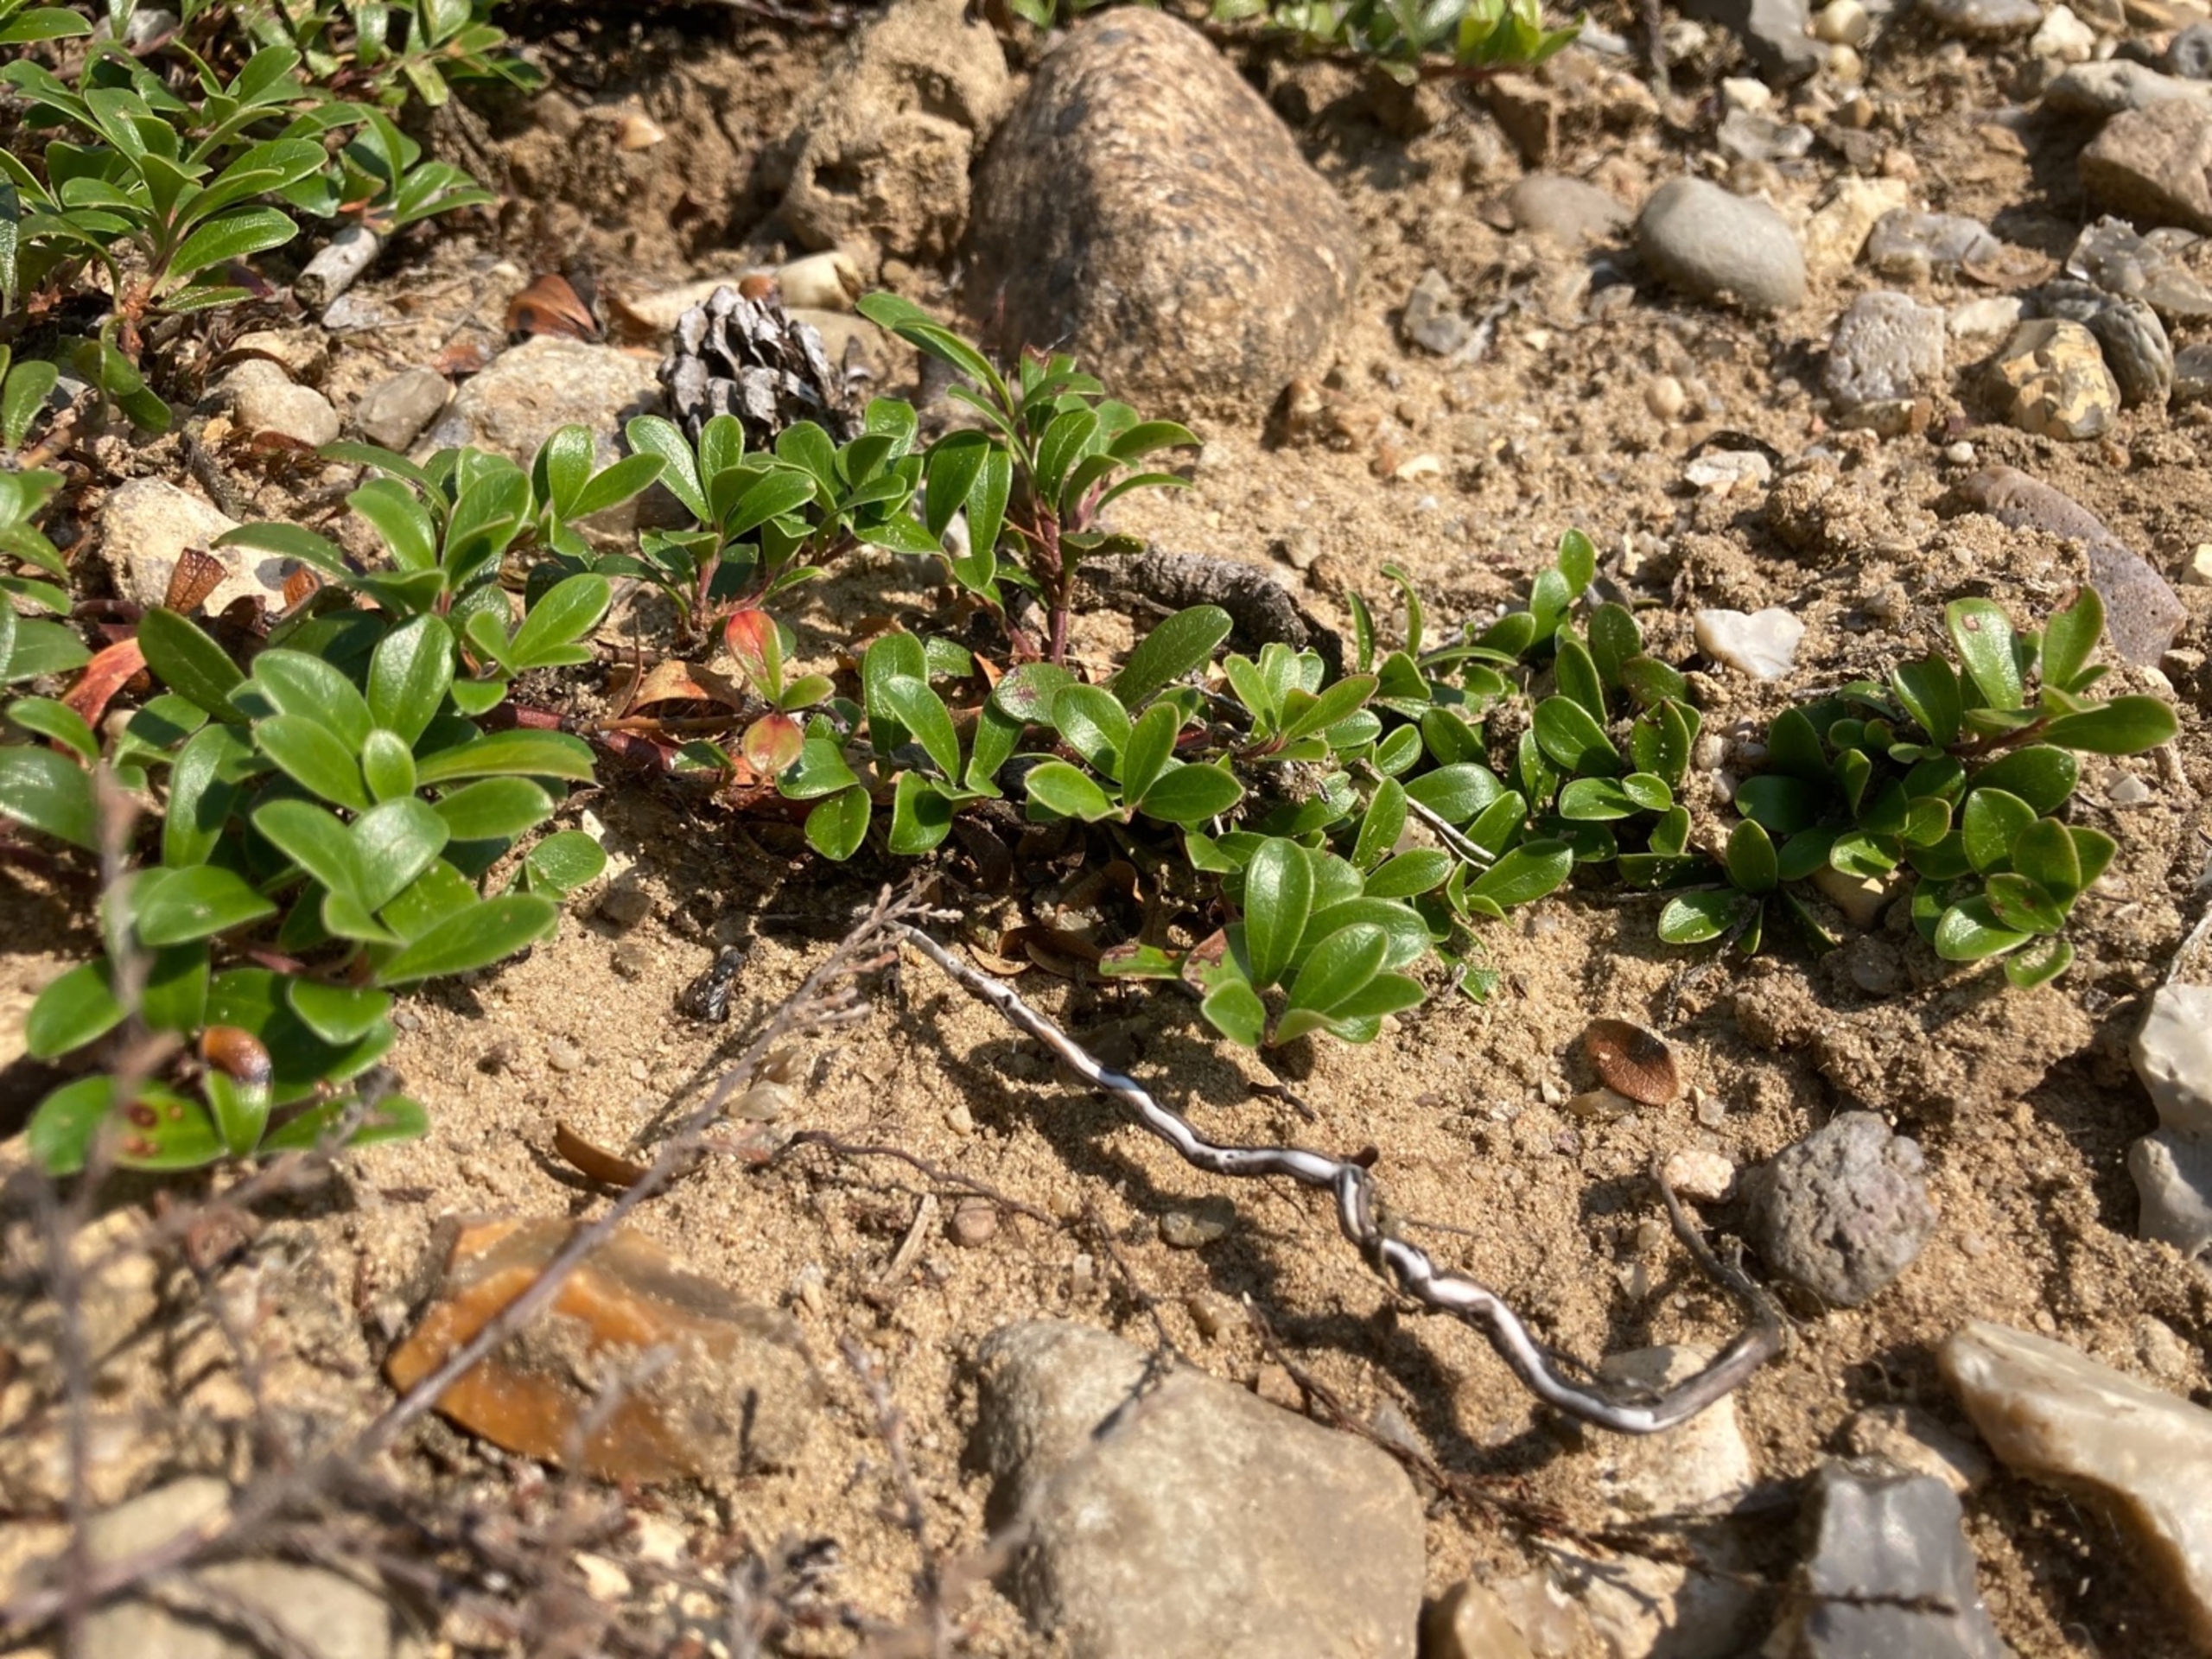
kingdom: Plantae
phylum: Tracheophyta
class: Magnoliopsida
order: Ericales
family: Ericaceae
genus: Arctostaphylos
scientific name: Arctostaphylos uva-ursi
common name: Hede-melbærris
